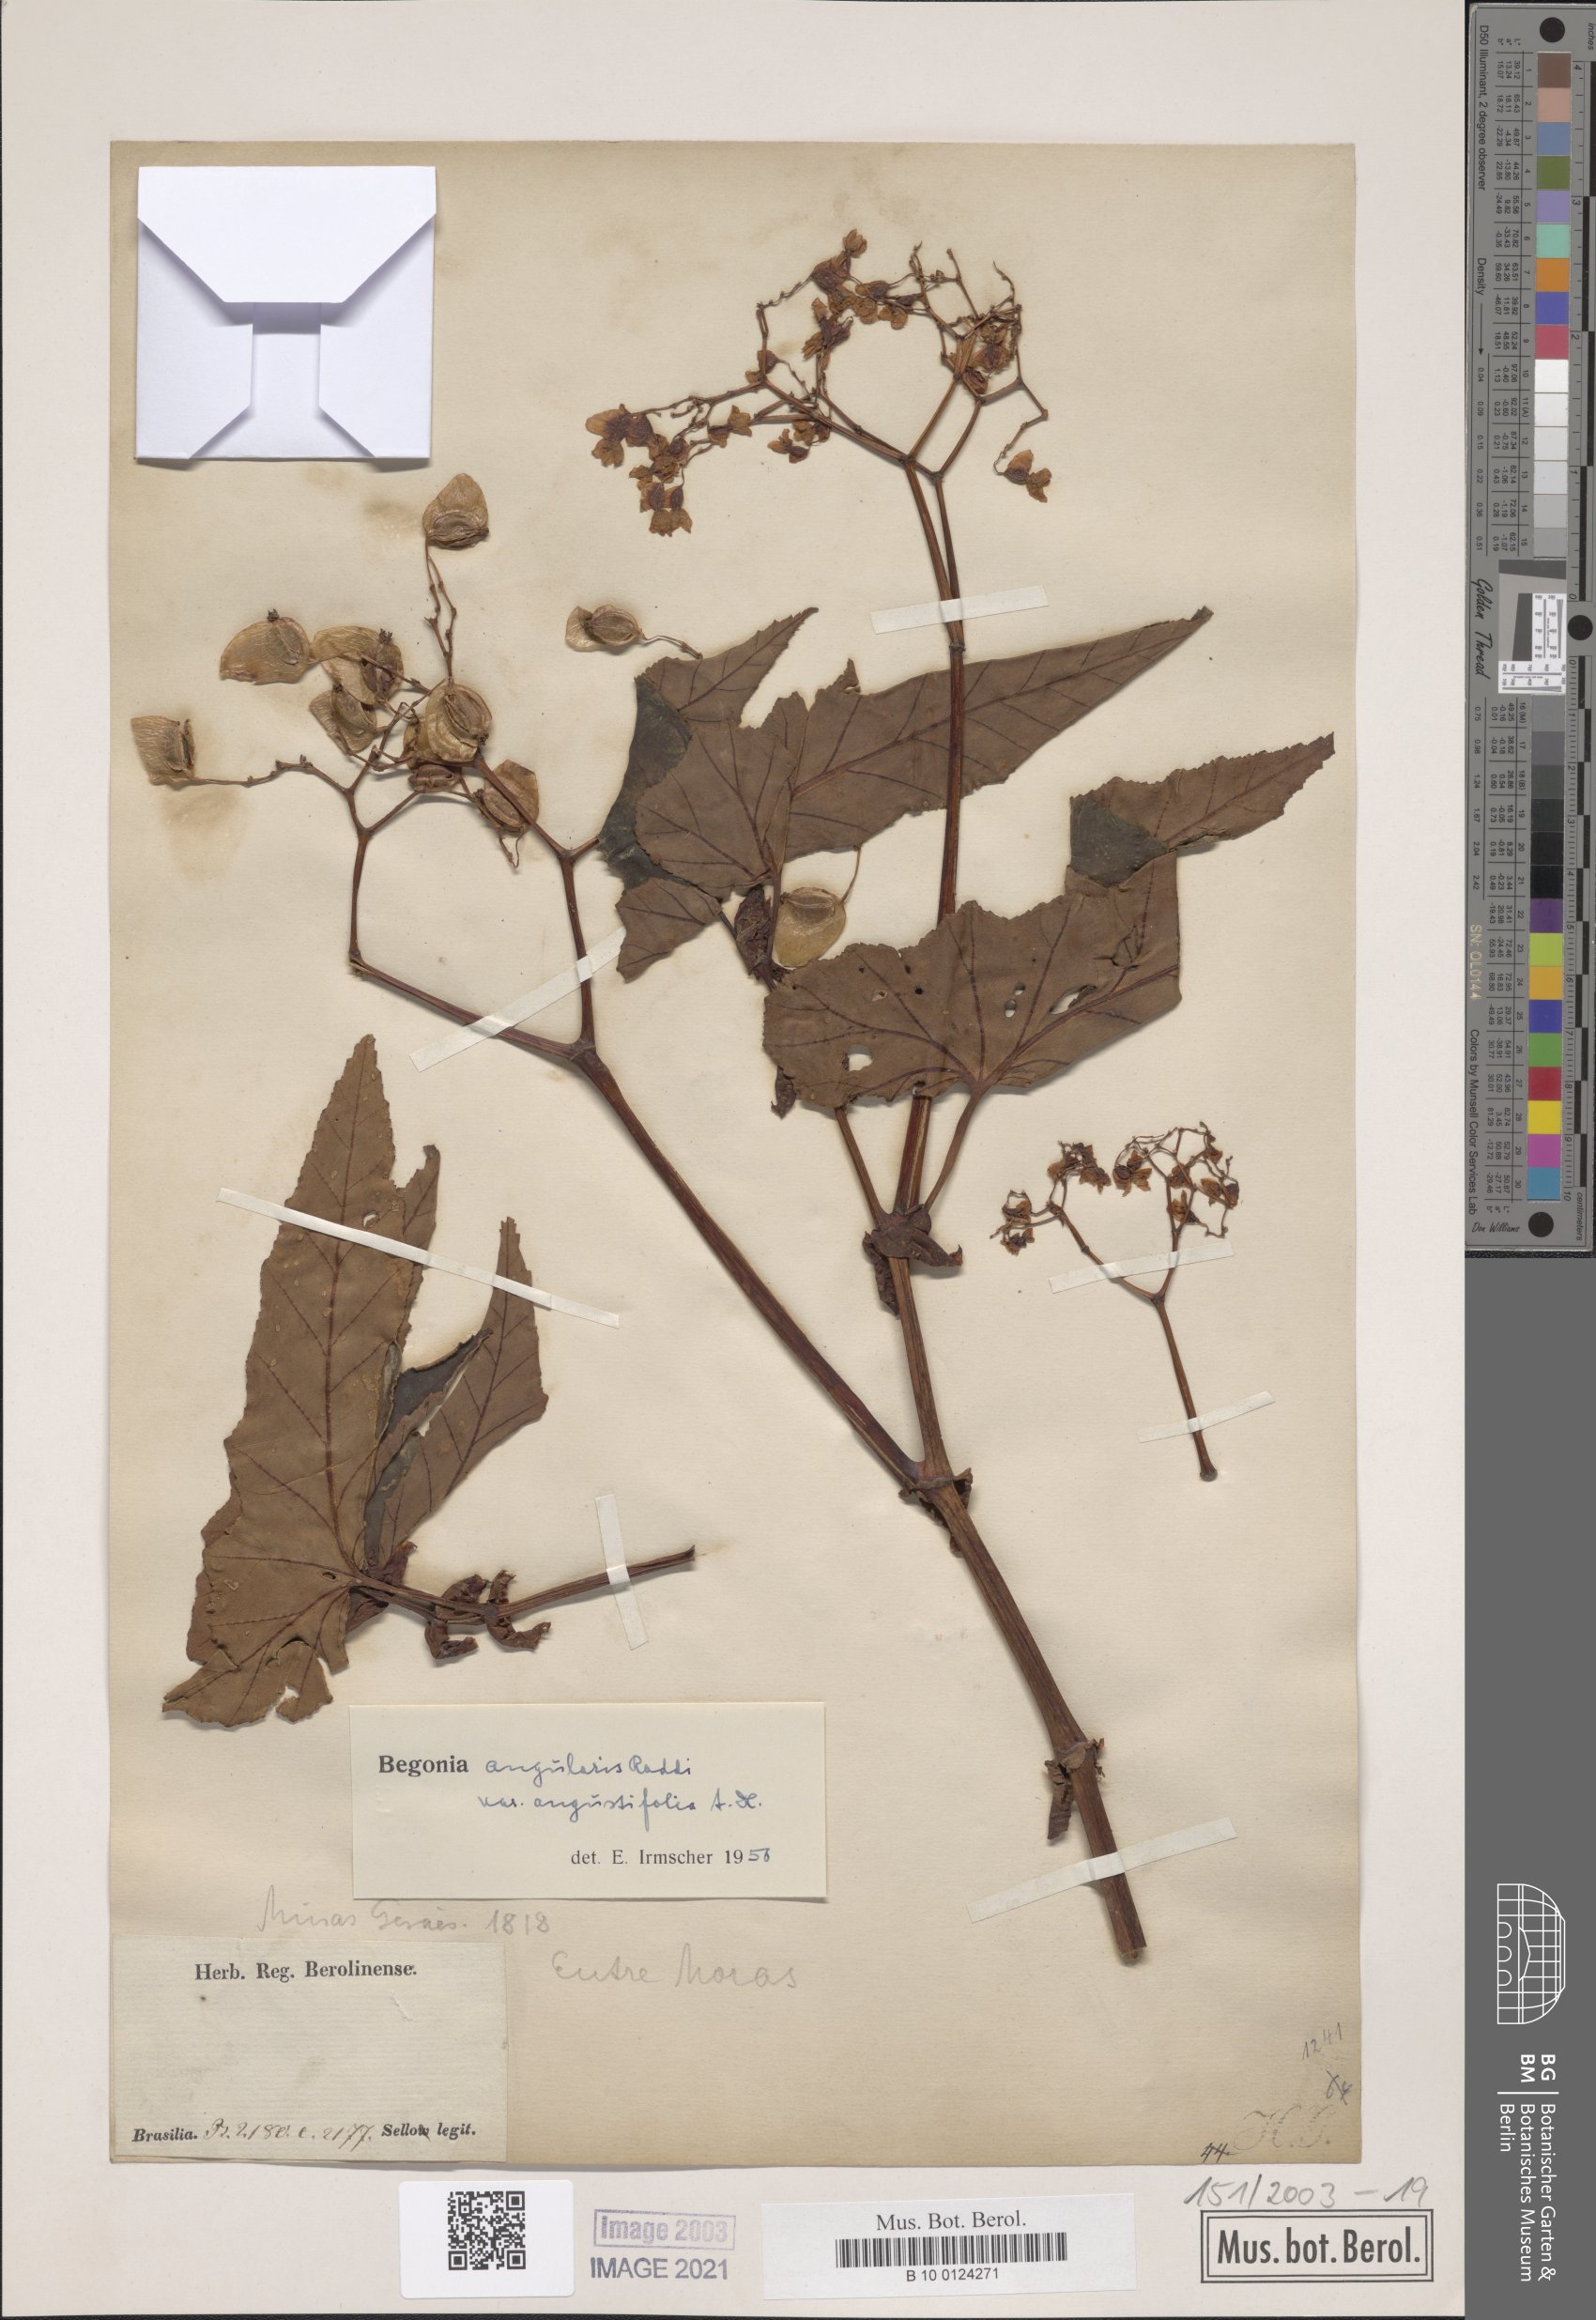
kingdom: Plantae
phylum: Tracheophyta
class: Magnoliopsida
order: Cucurbitales
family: Begoniaceae
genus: Begonia
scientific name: Begonia angularis
